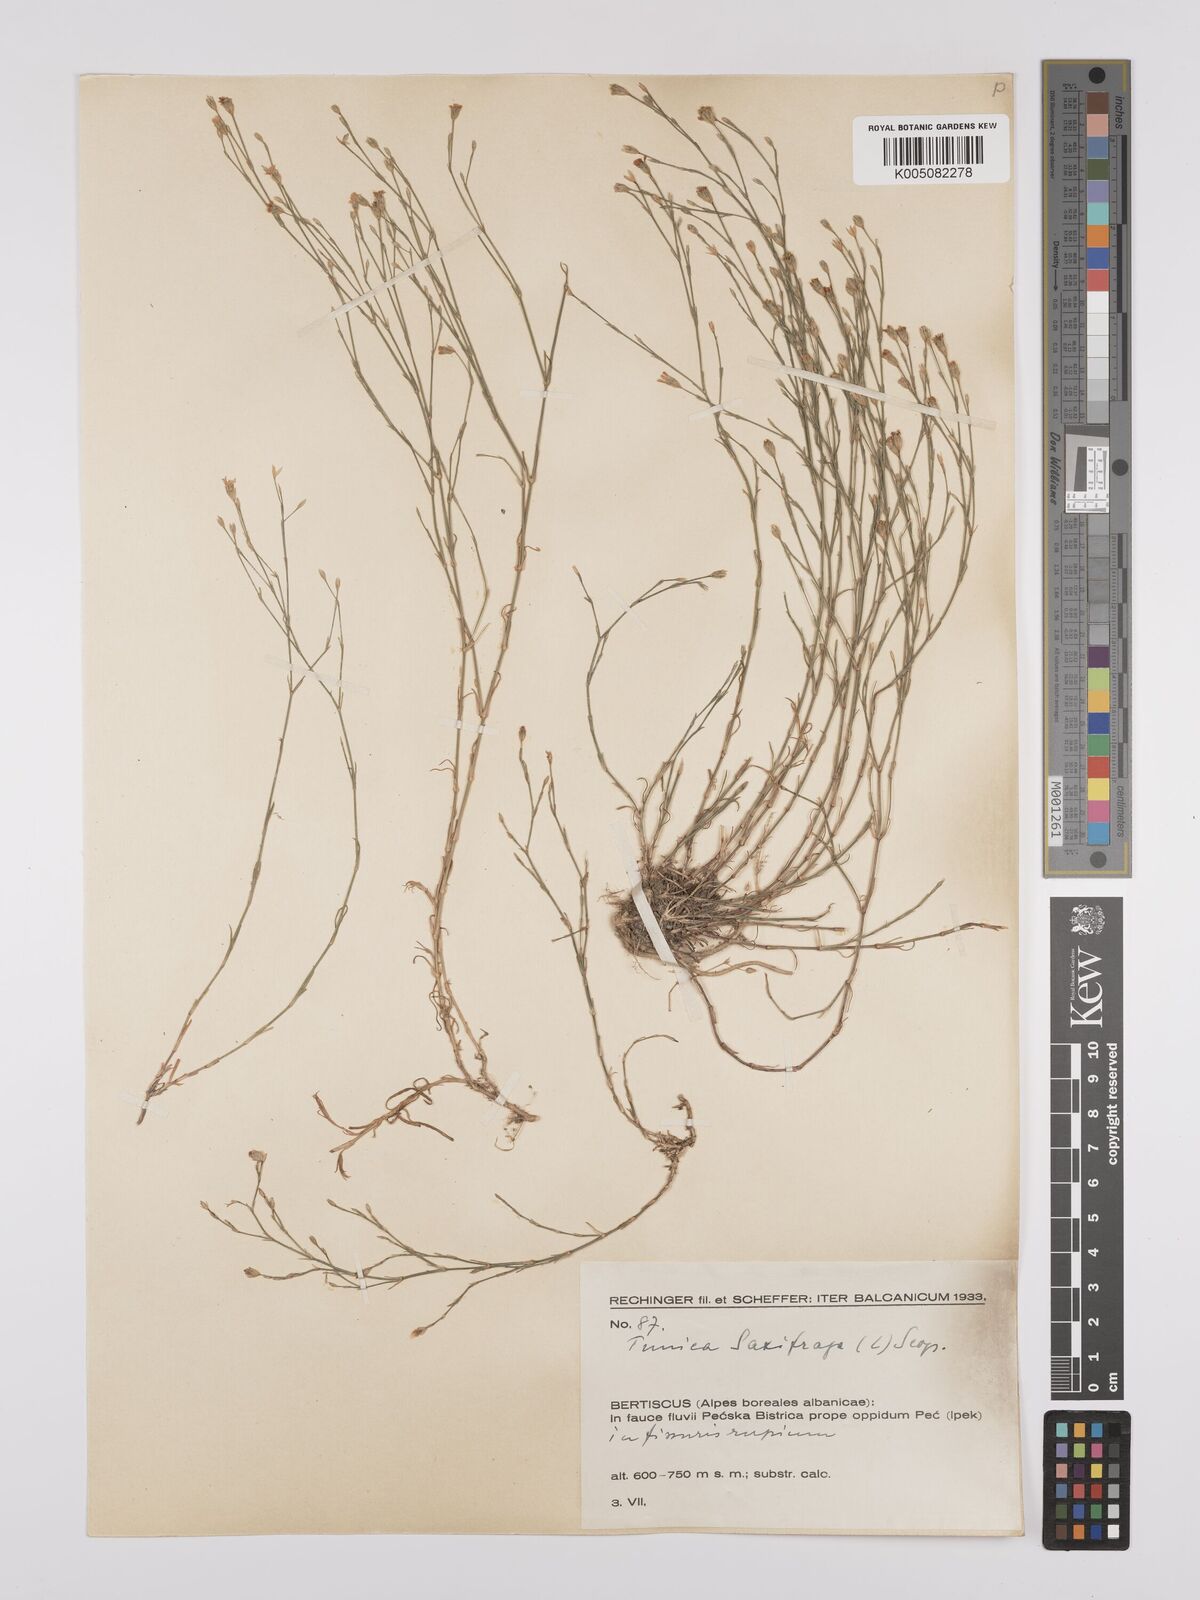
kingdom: Plantae
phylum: Tracheophyta
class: Magnoliopsida
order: Caryophyllales
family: Caryophyllaceae
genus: Petrorhagia
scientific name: Petrorhagia saxifraga
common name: Tunicflower
